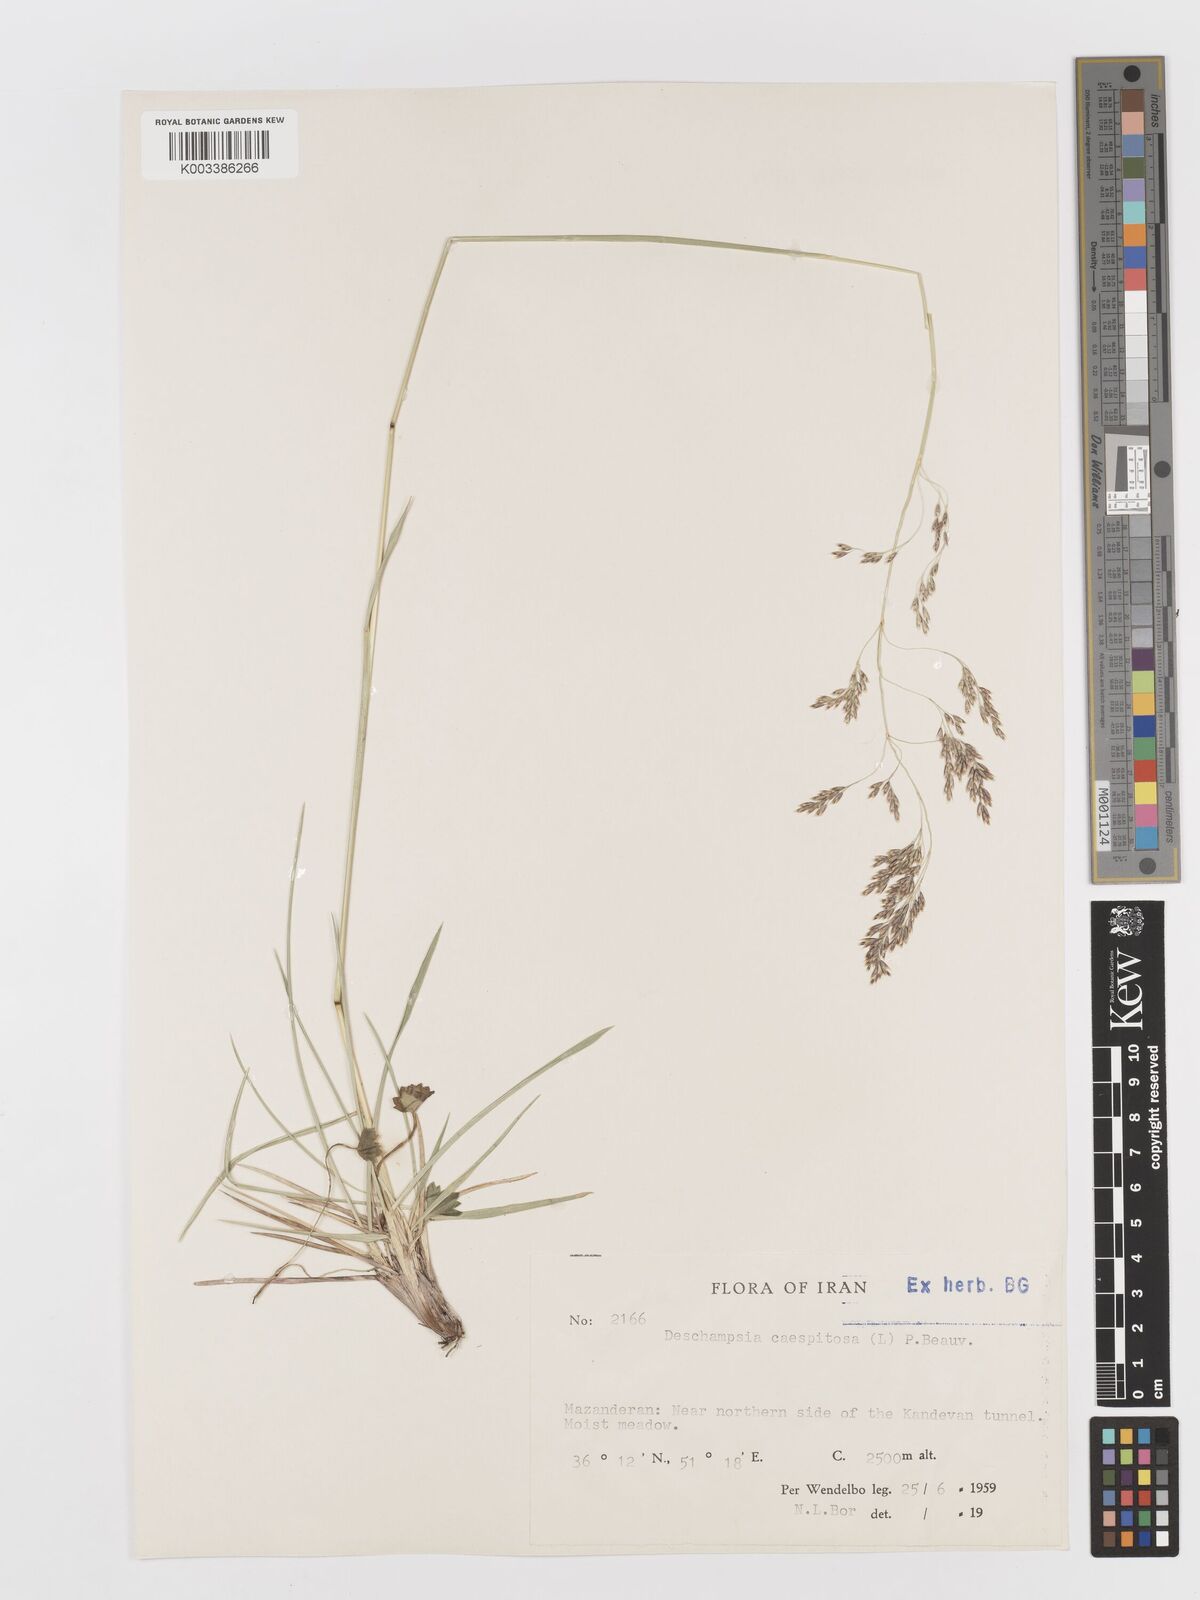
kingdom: Plantae
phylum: Tracheophyta
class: Liliopsida
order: Poales
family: Poaceae
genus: Deschampsia
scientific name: Deschampsia cespitosa
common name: Tufted hair-grass
